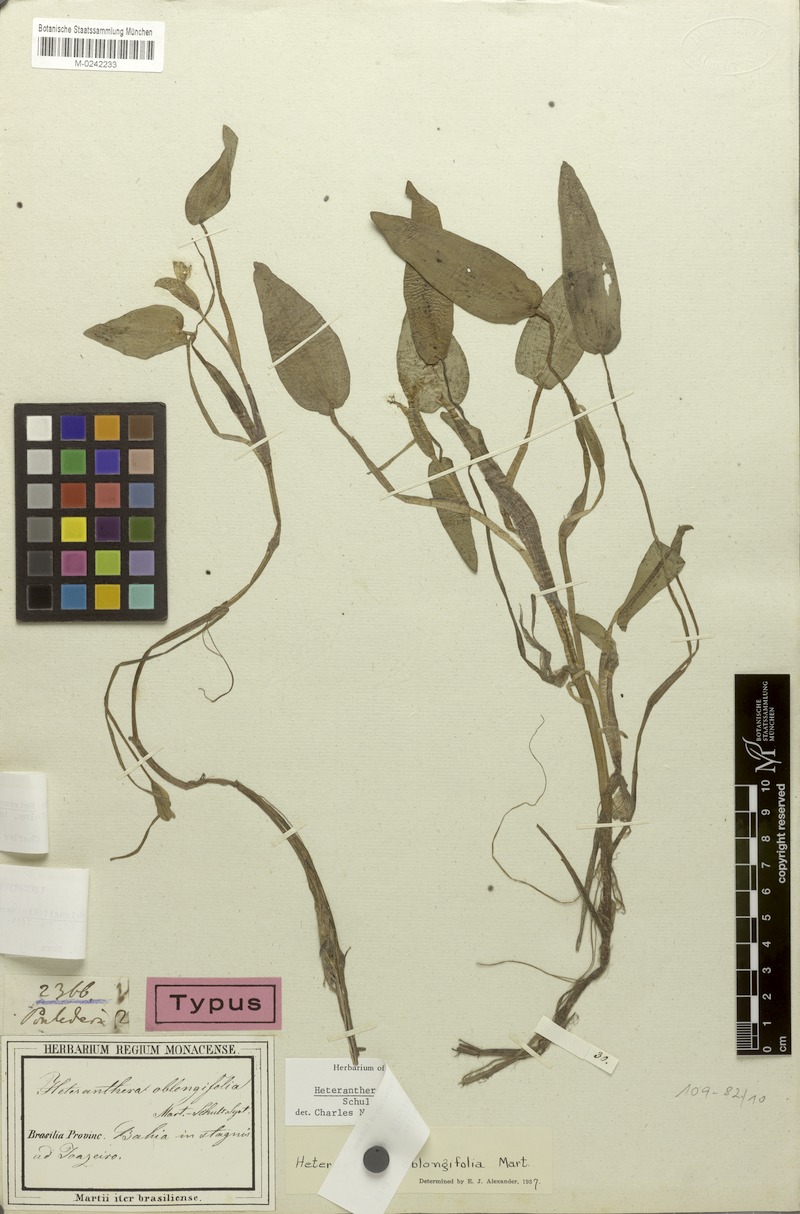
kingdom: Plantae
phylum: Tracheophyta
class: Liliopsida
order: Commelinales
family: Pontederiaceae
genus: Heteranthera
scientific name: Heteranthera oblongifolia
